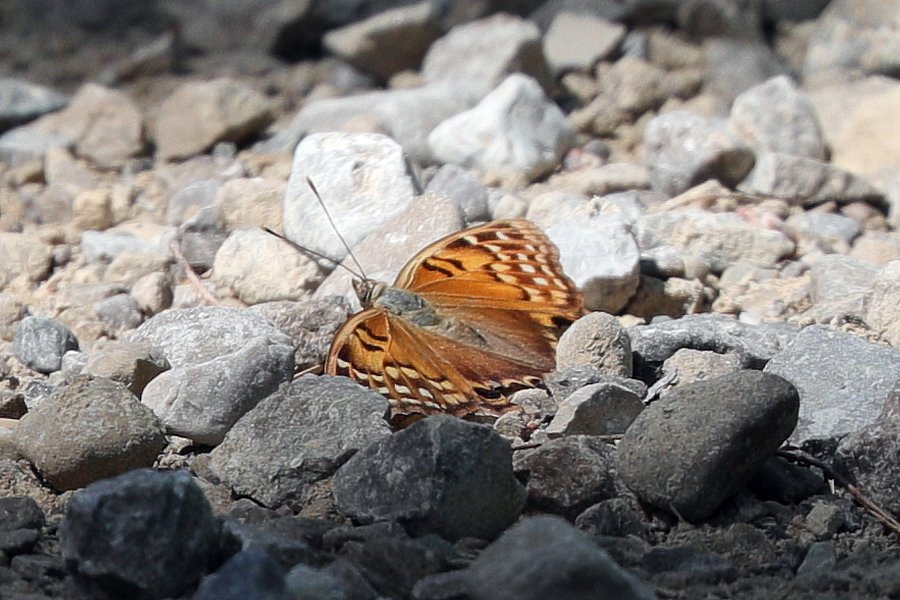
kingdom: Animalia
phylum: Arthropoda
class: Insecta
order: Lepidoptera
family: Nymphalidae
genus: Asterocampa
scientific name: Asterocampa clyton
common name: Tawny Emperor
